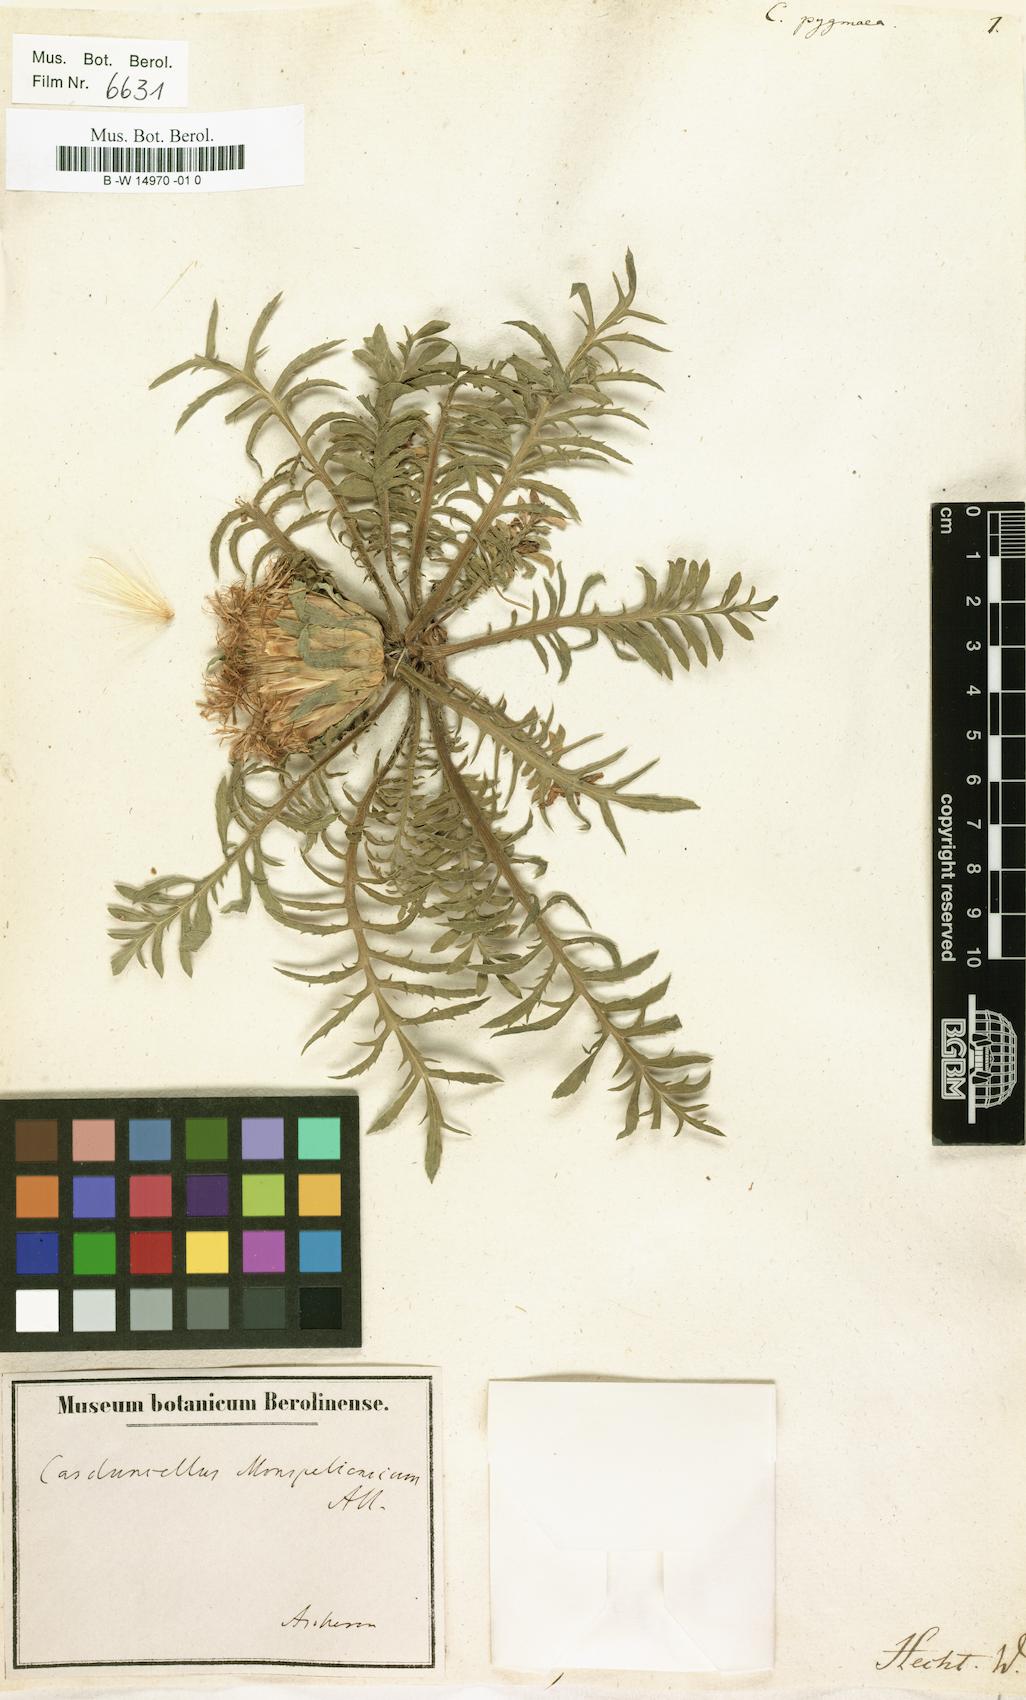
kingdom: Plantae
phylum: Tracheophyta
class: Magnoliopsida
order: Asterales
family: Asteraceae
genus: Cynara
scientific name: Cynara cardunculus
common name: Globe artichoke
